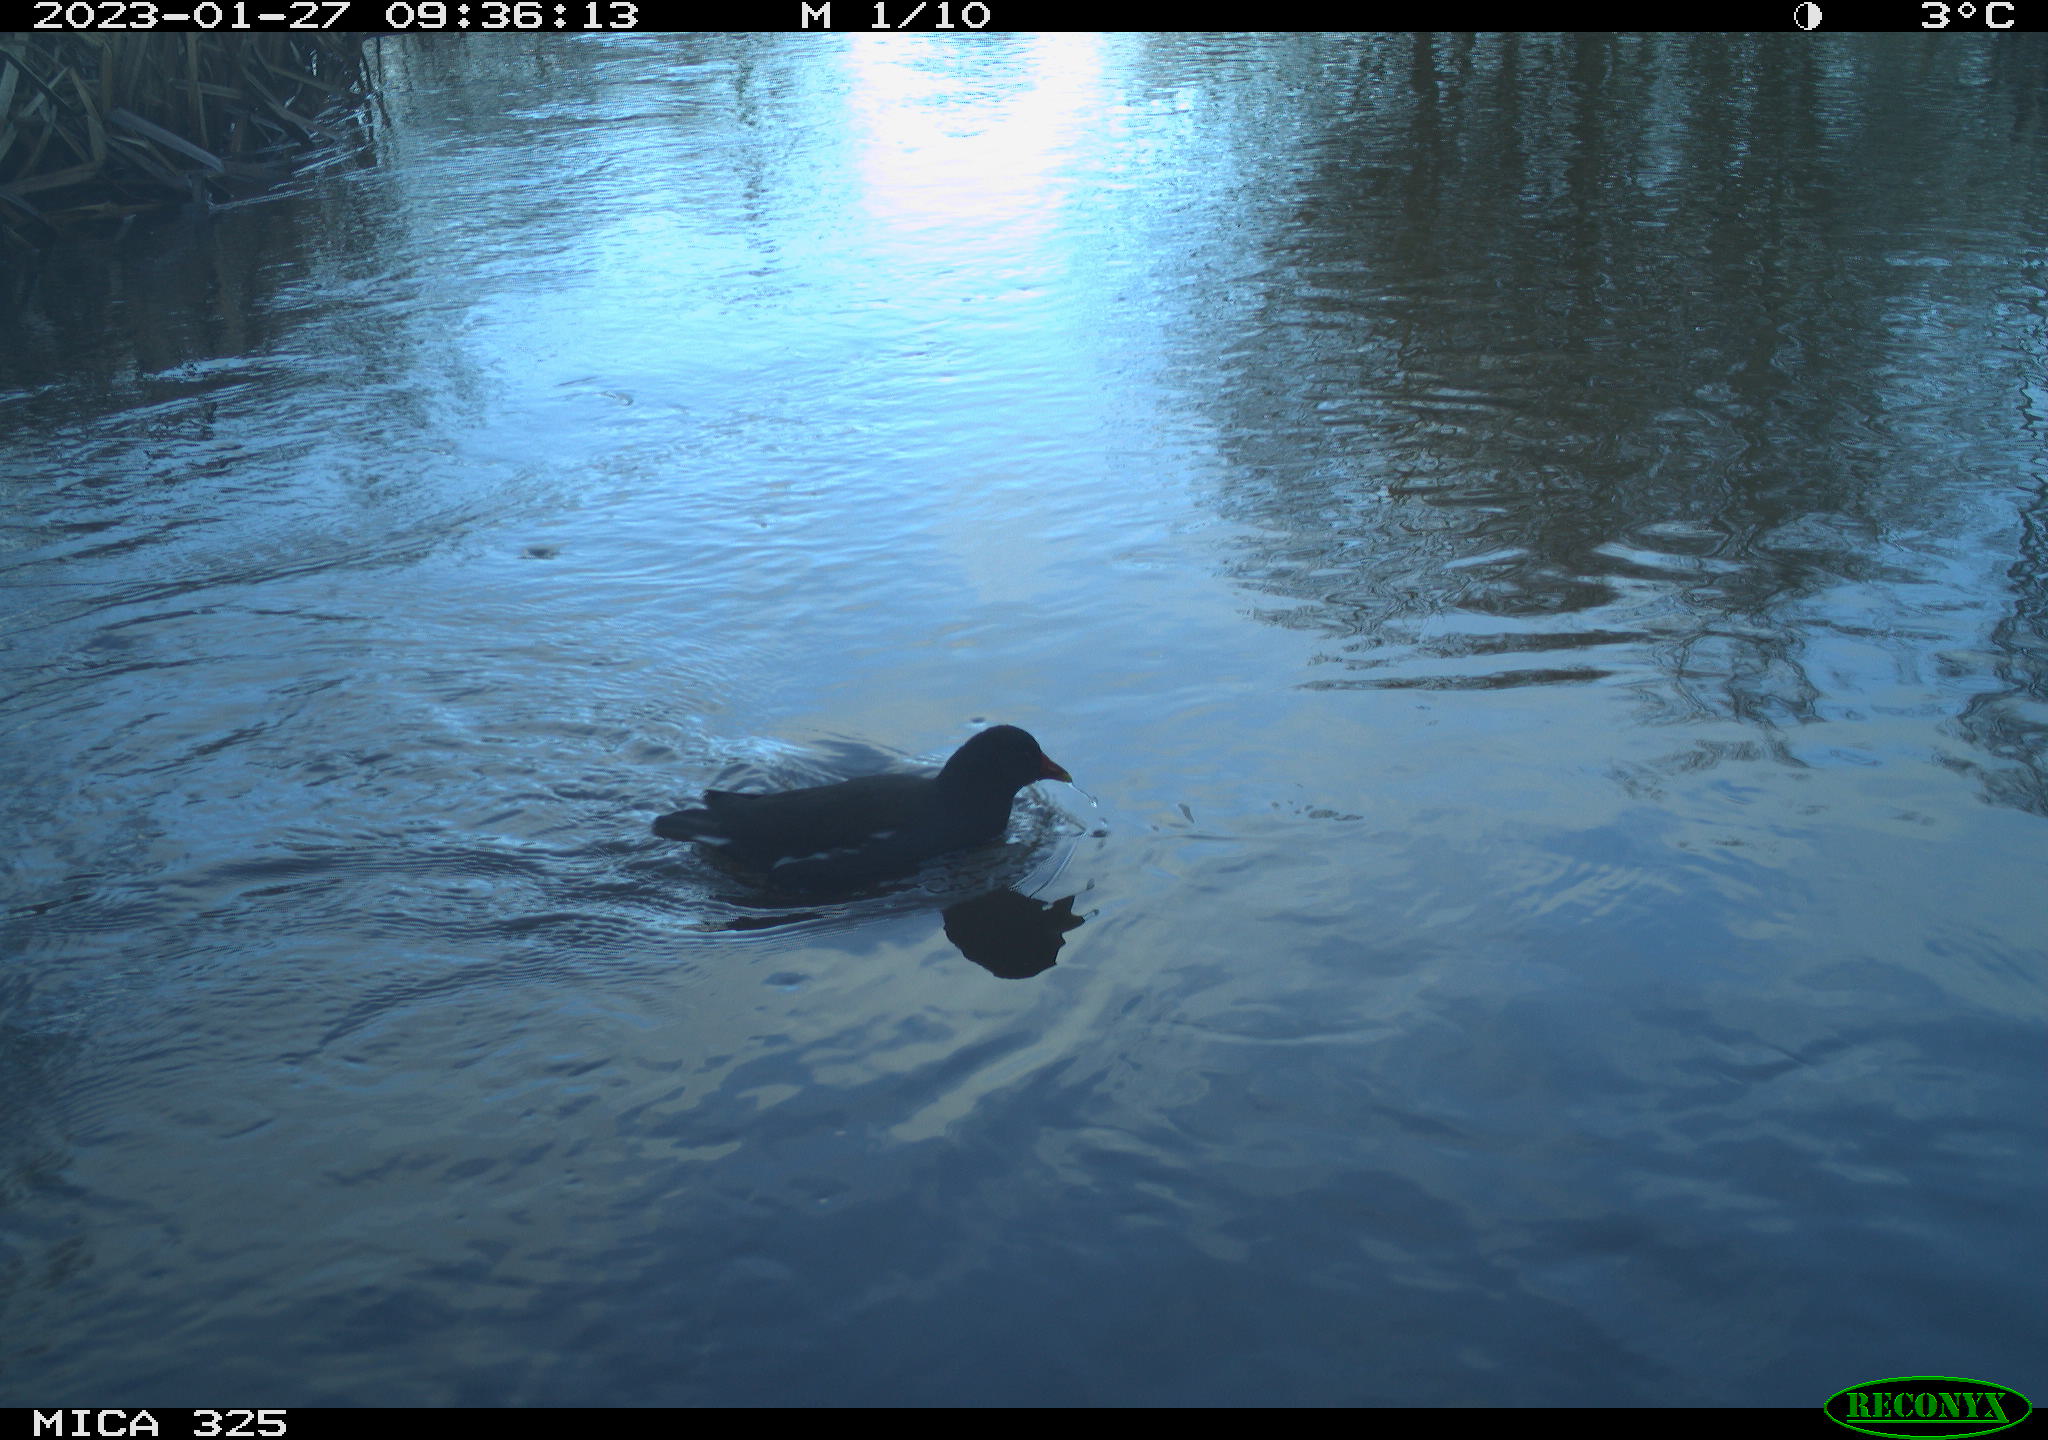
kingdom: Animalia
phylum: Chordata
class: Aves
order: Gruiformes
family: Rallidae
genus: Gallinula
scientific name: Gallinula chloropus
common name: Common moorhen
